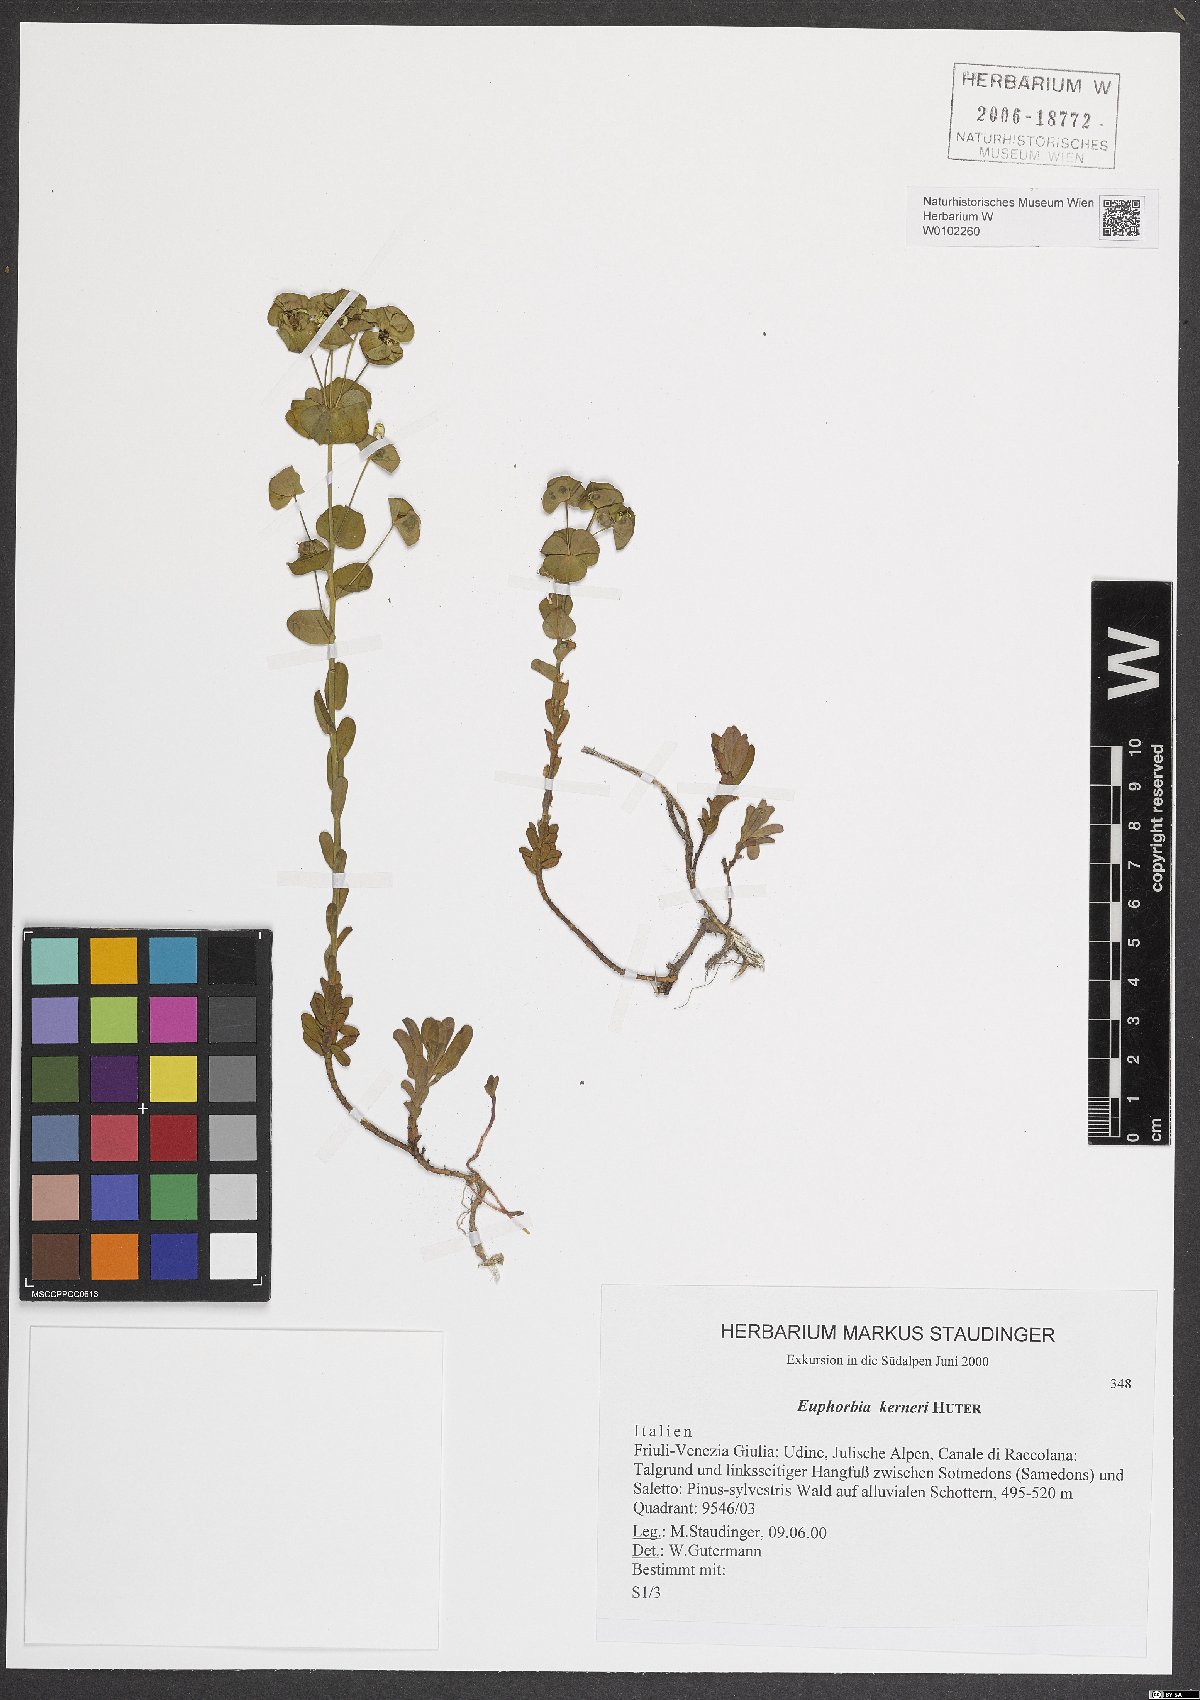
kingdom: Plantae
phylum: Tracheophyta
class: Magnoliopsida
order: Malpighiales
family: Euphorbiaceae
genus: Euphorbia
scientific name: Euphorbia kerneri
